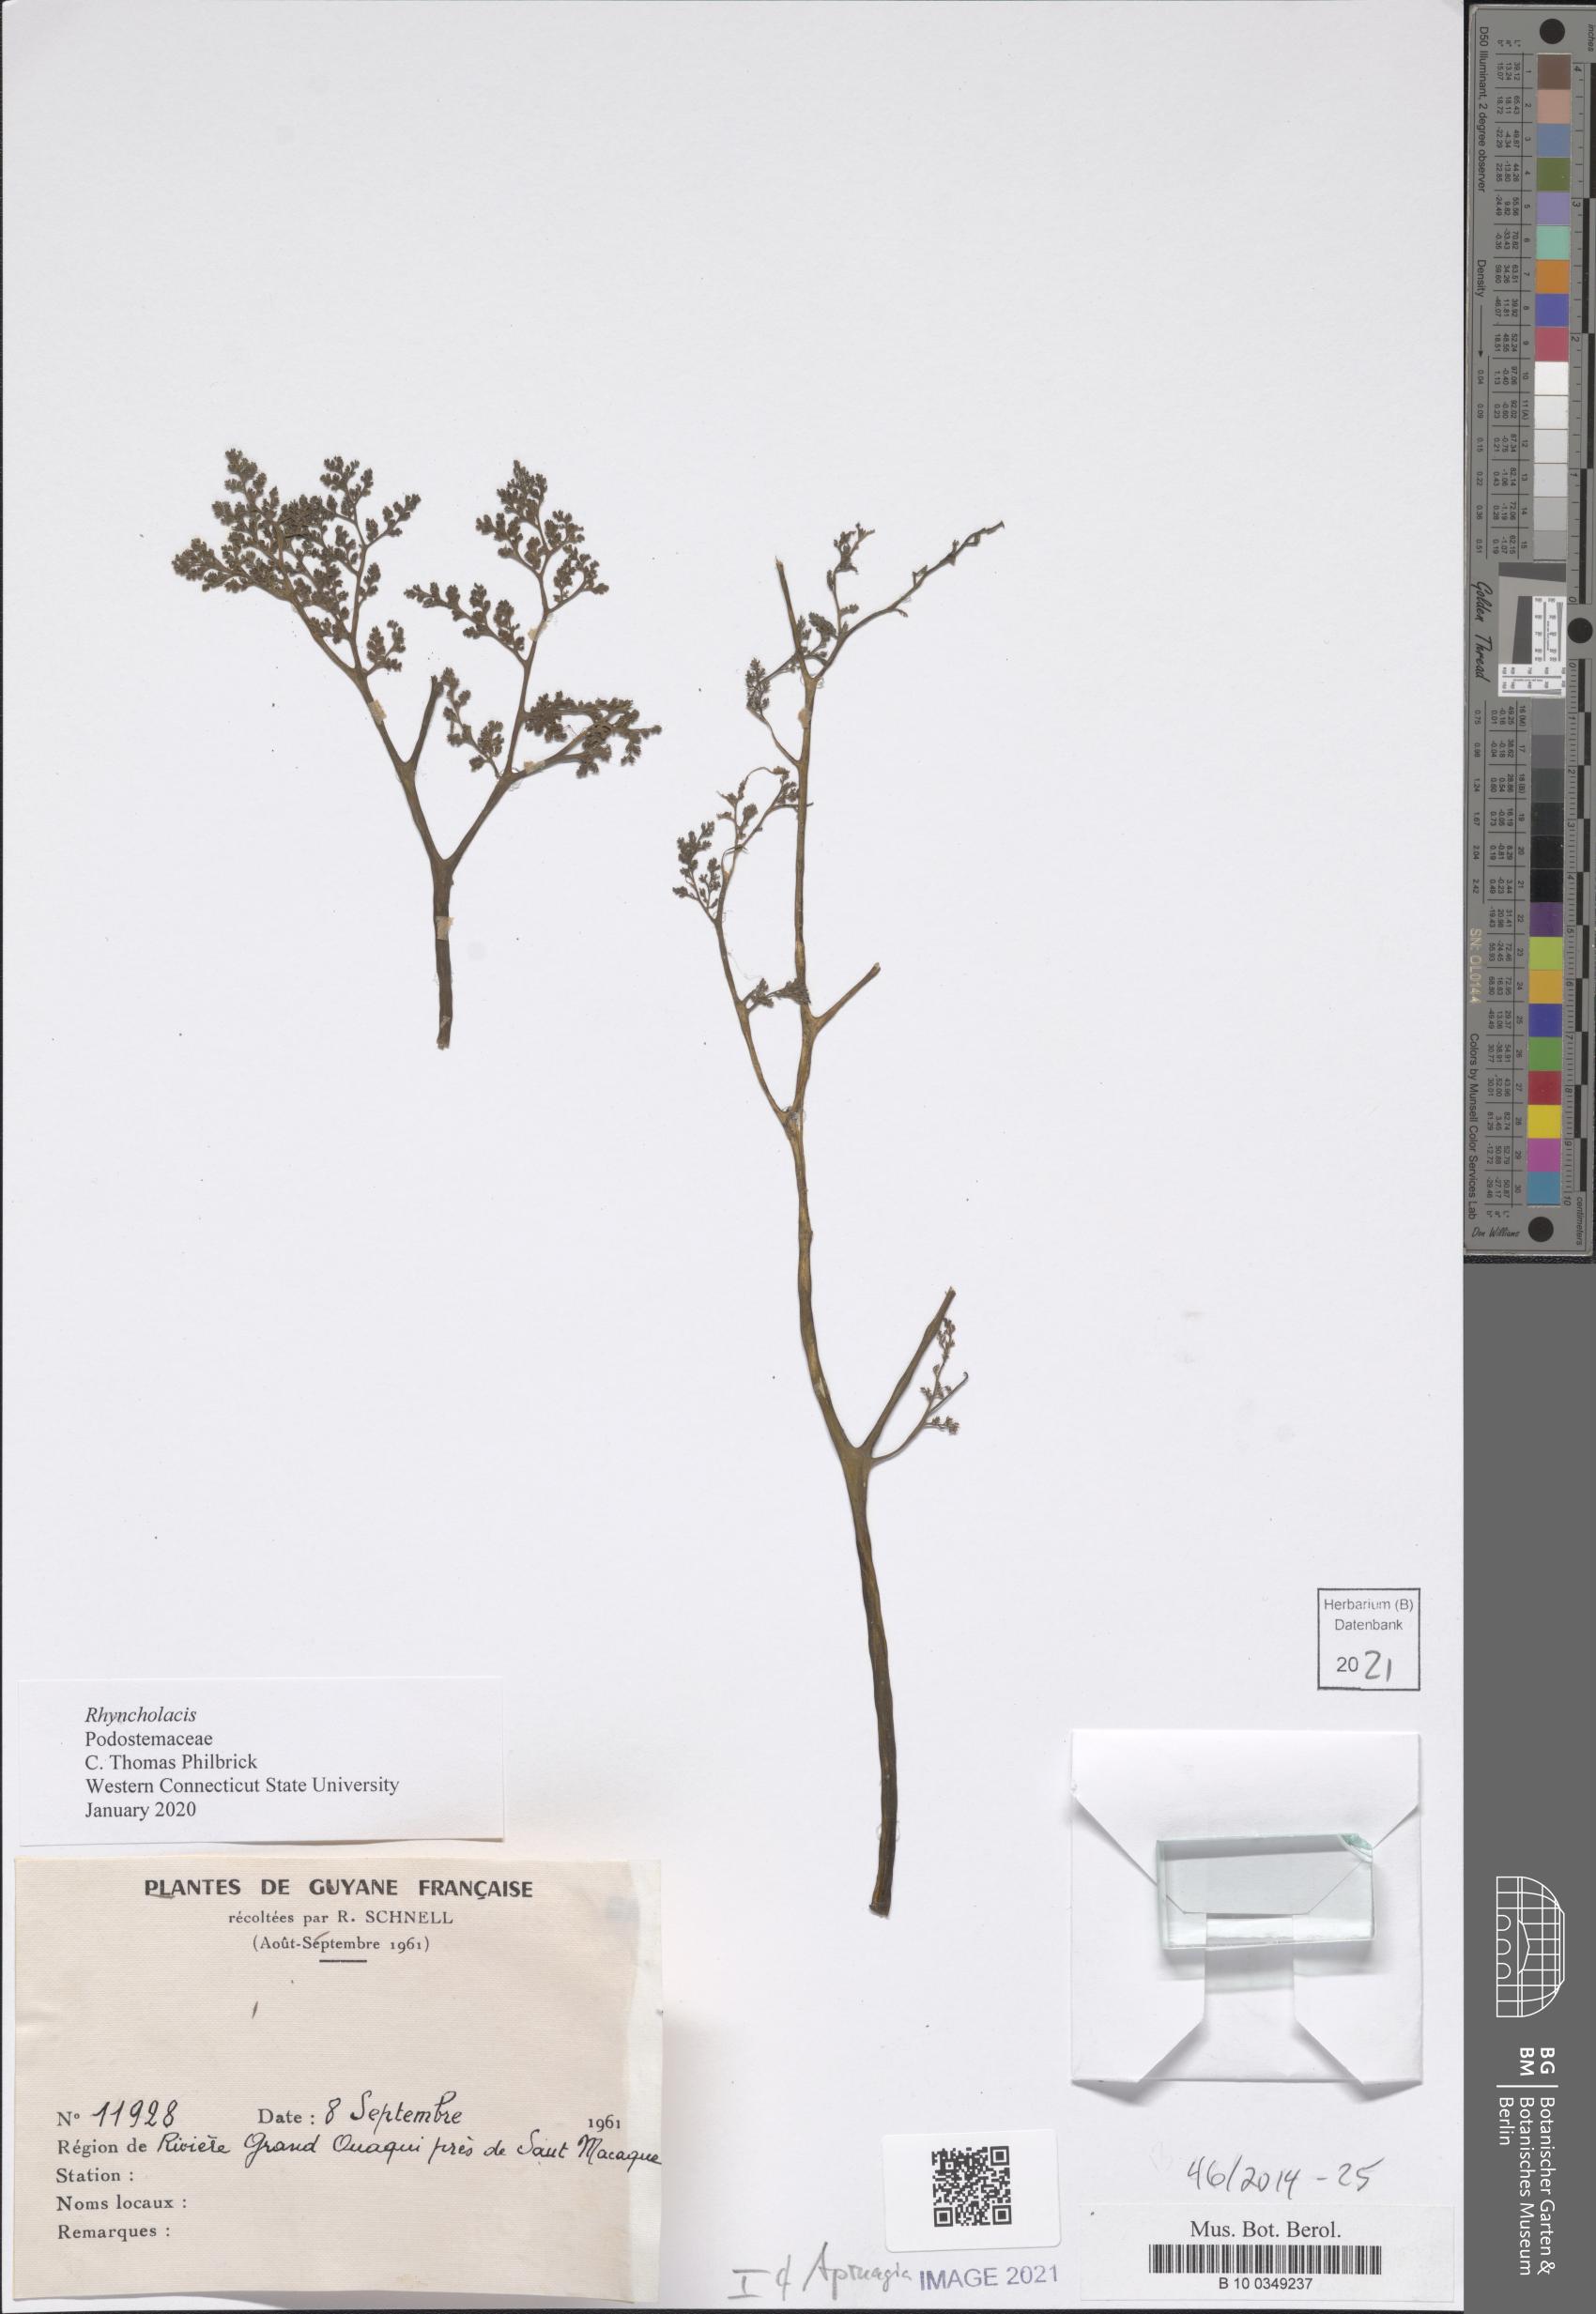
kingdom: Plantae
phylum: Tracheophyta
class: Magnoliopsida
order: Malpighiales
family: Podostemaceae
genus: Rhyncholacis
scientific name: Rhyncholacis
